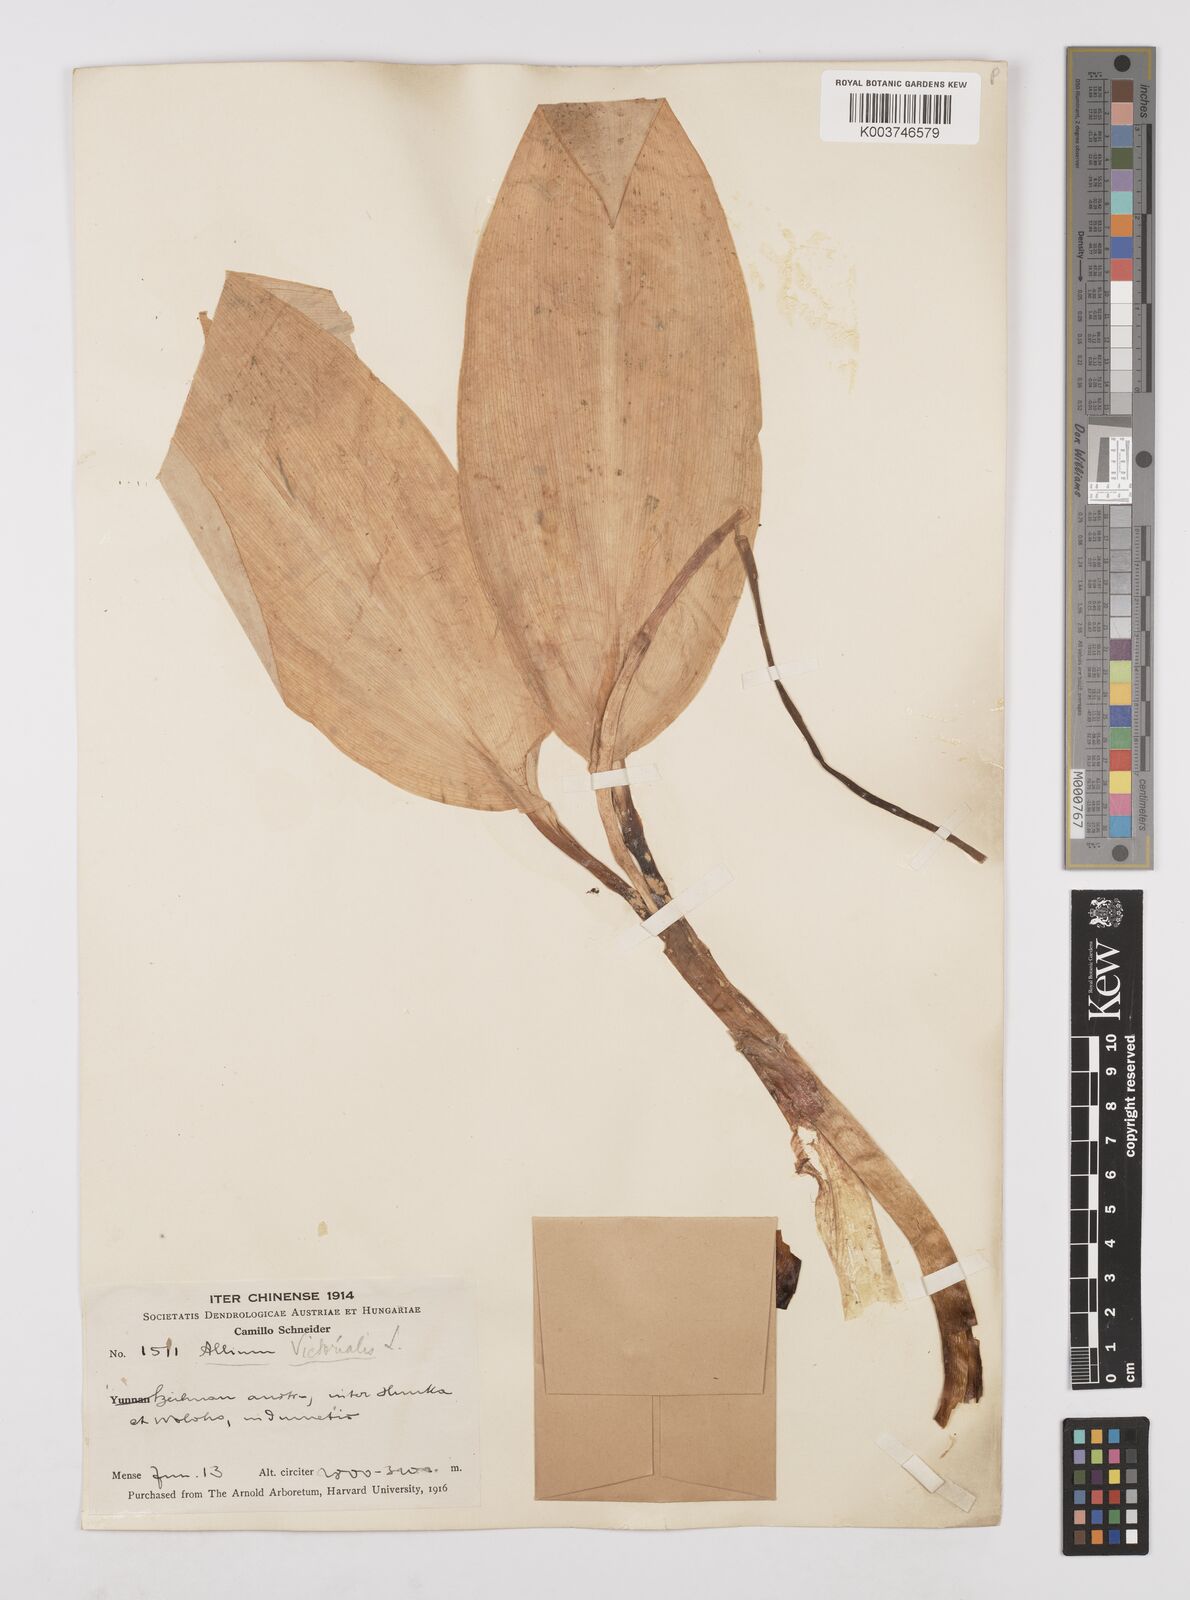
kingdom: Plantae
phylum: Tracheophyta
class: Liliopsida
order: Asparagales
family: Amaryllidaceae
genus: Allium
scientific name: Allium victorialis
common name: Alpine leek
